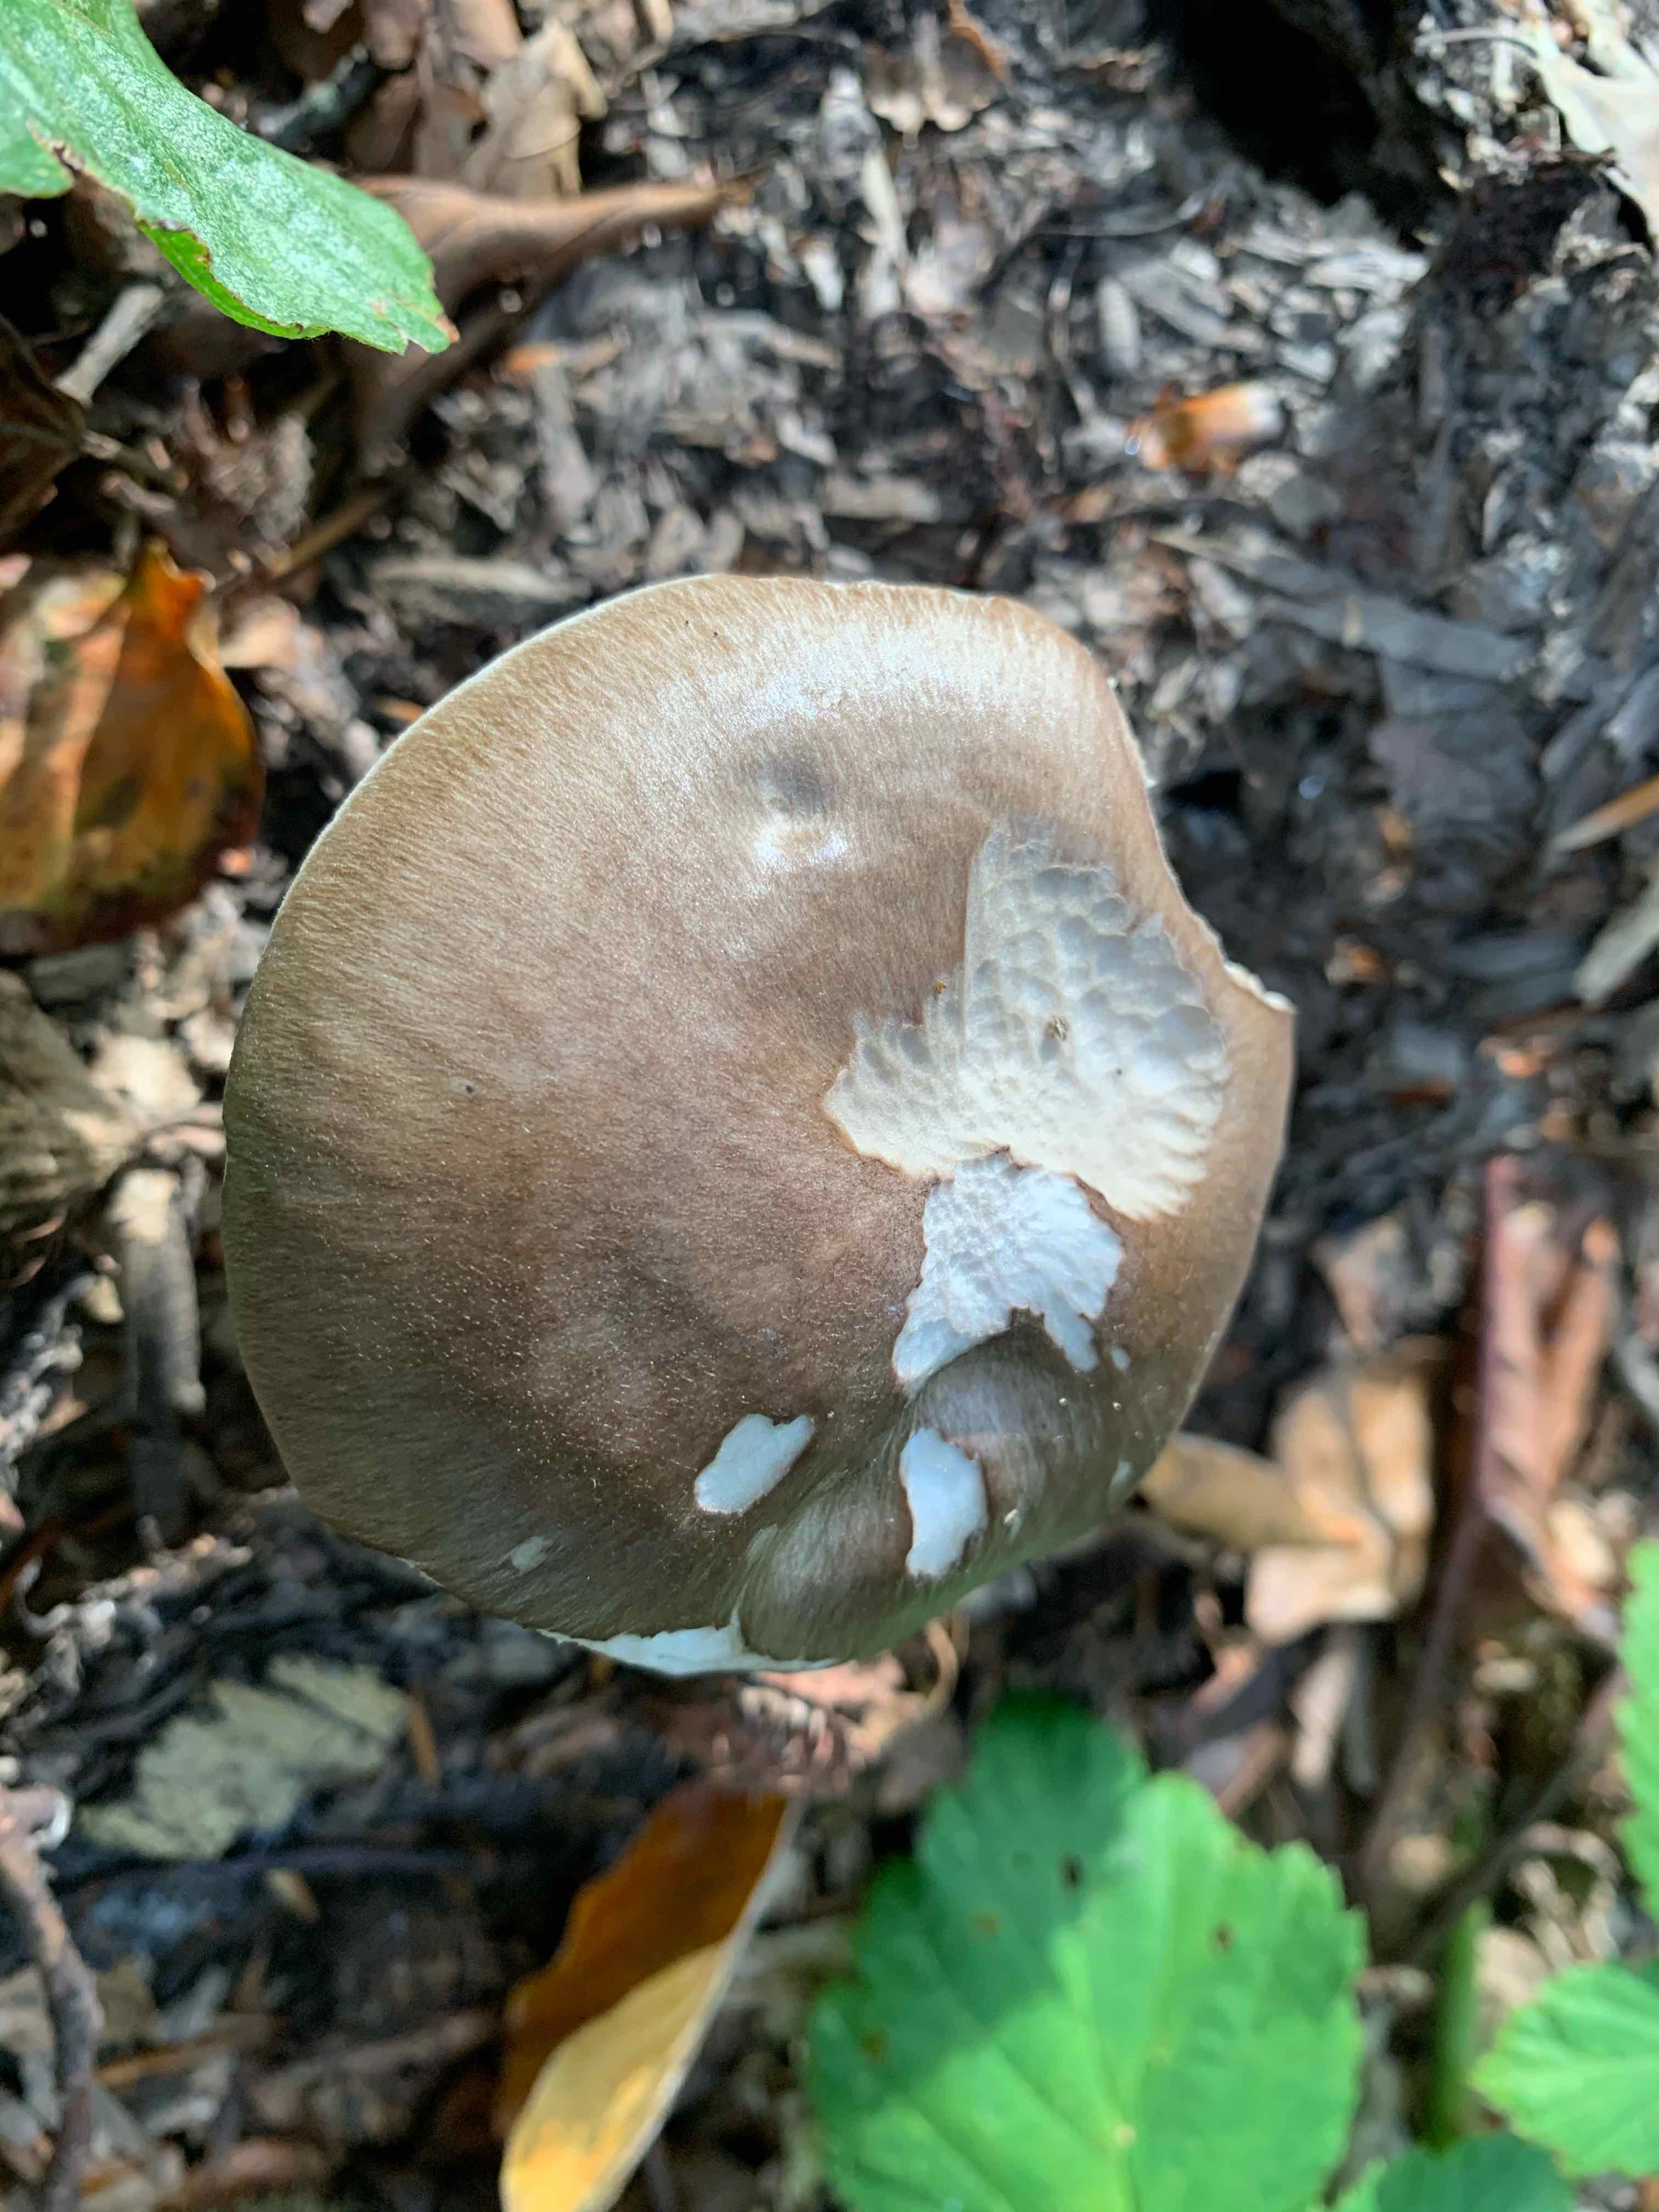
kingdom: Fungi
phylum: Basidiomycota
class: Agaricomycetes
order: Agaricales
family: Pluteaceae
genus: Pluteus
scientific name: Pluteus cervinus
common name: sodfarvet skærmhat
